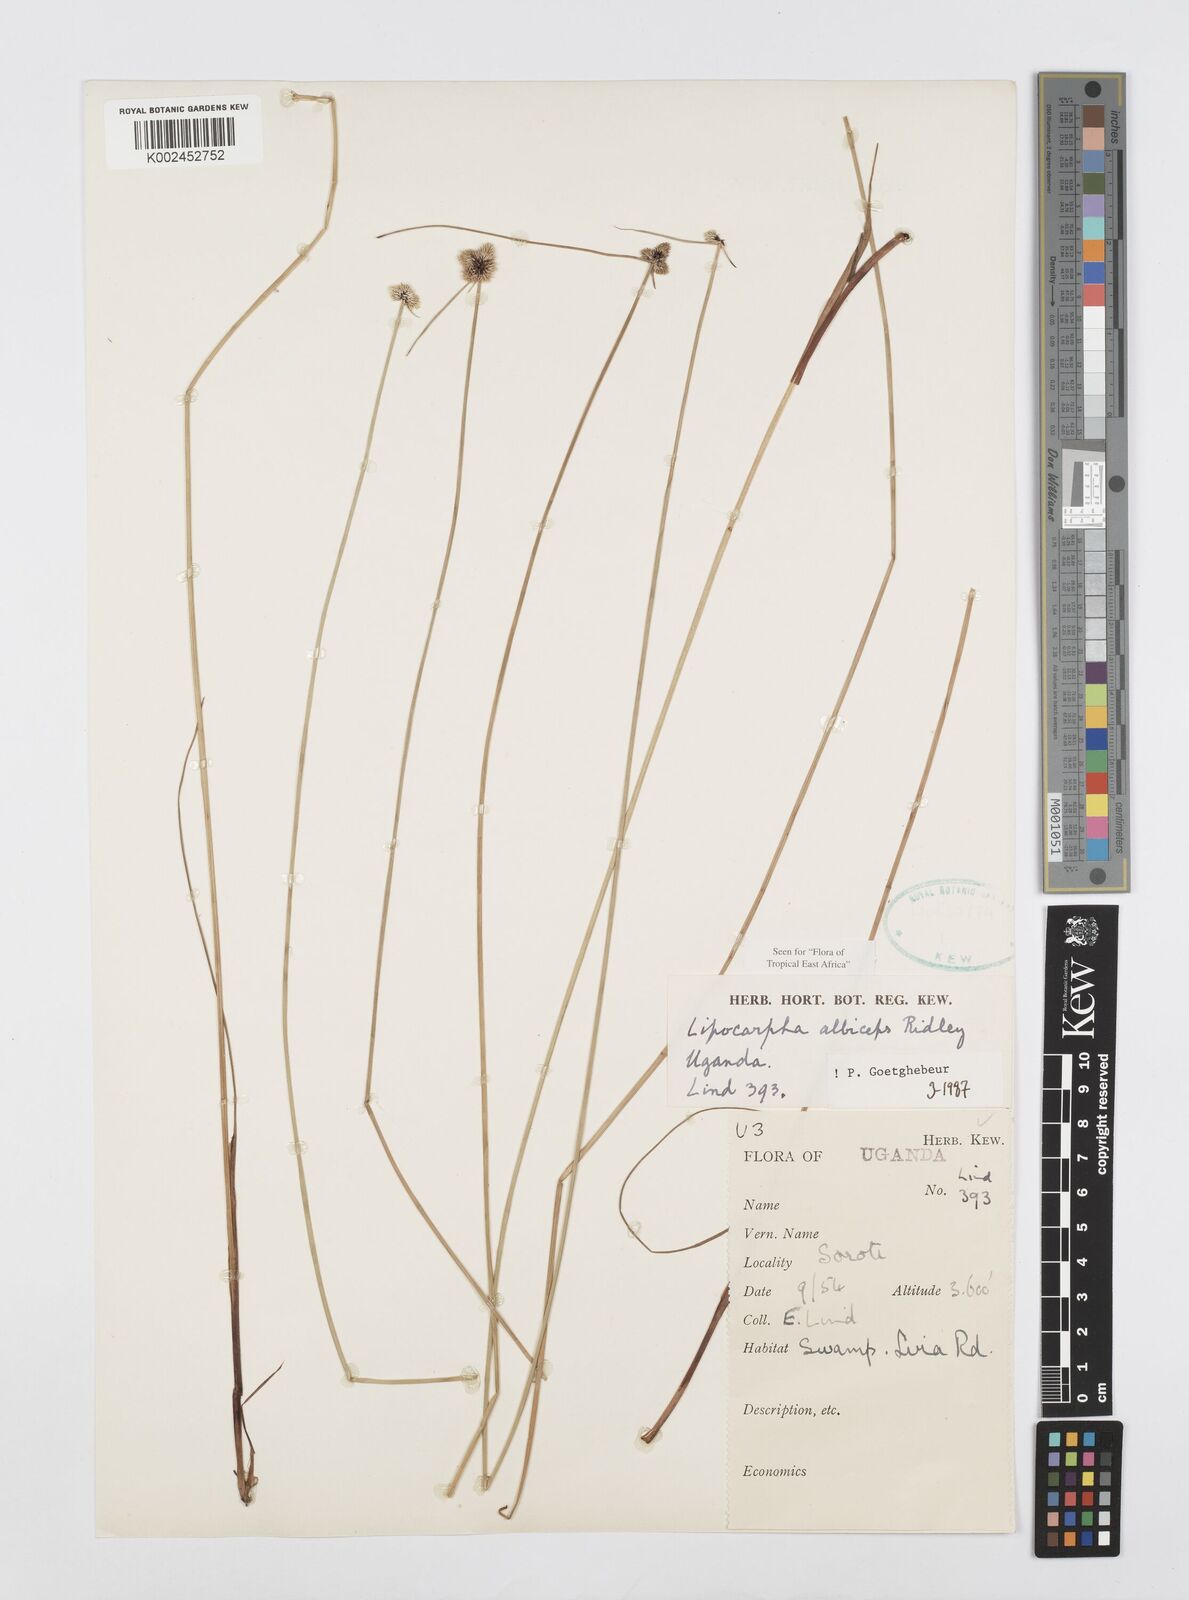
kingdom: Plantae
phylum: Tracheophyta
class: Liliopsida
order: Poales
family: Cyperaceae
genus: Cyperus
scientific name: Cyperus albiceps
